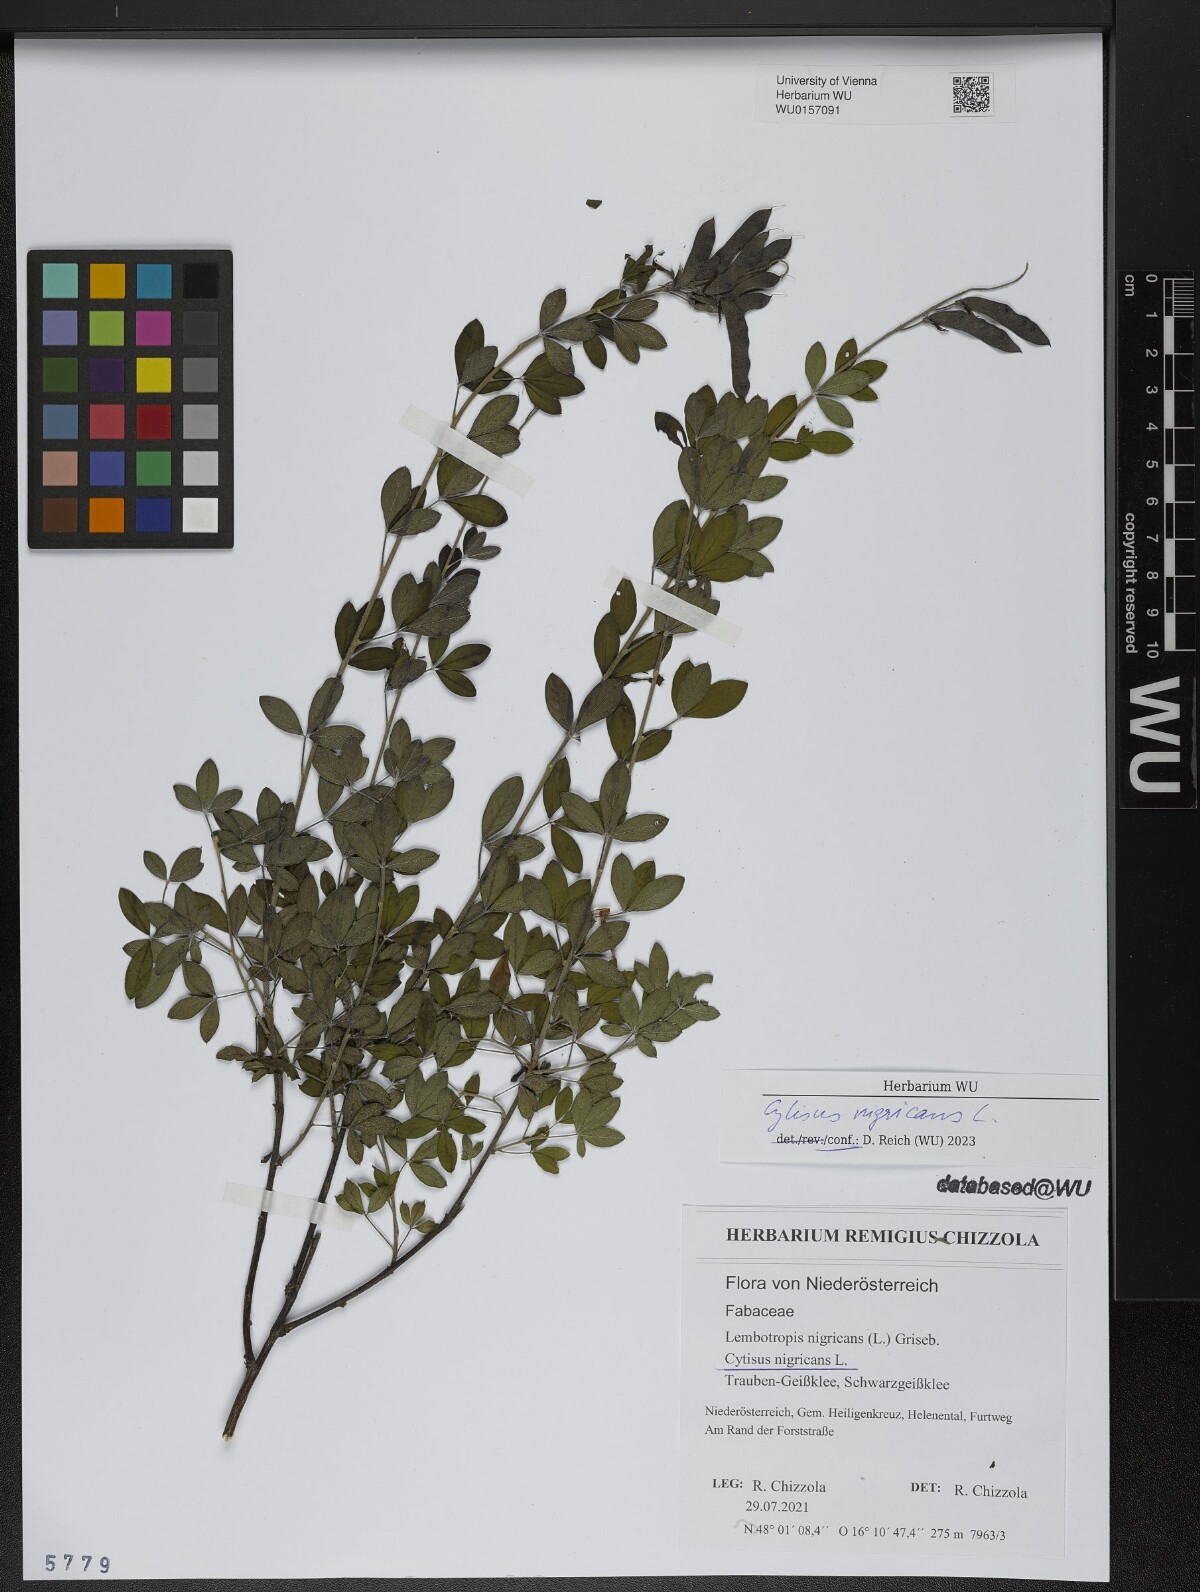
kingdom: Plantae
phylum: Tracheophyta
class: Magnoliopsida
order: Fabales
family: Fabaceae
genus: Cytisus
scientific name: Cytisus nigricans
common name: Black broom
